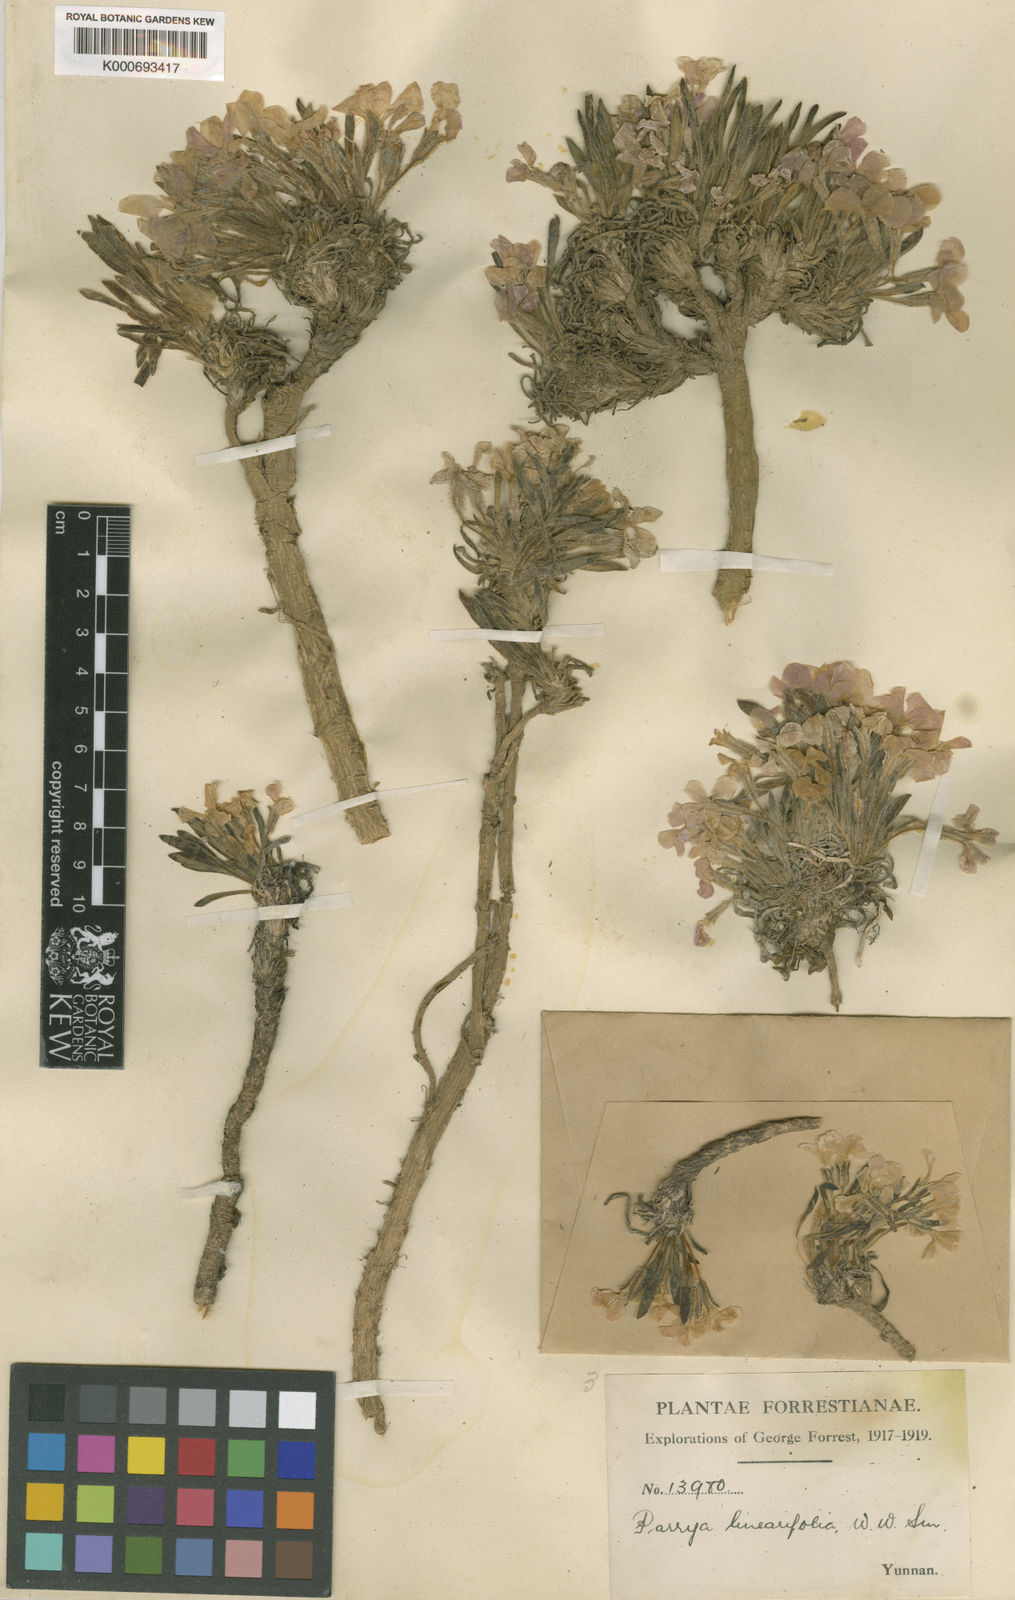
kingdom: Plantae
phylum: Tracheophyta
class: Magnoliopsida
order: Brassicales
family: Brassicaceae
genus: Solms-laubachia
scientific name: Solms-laubachia linearifolia
